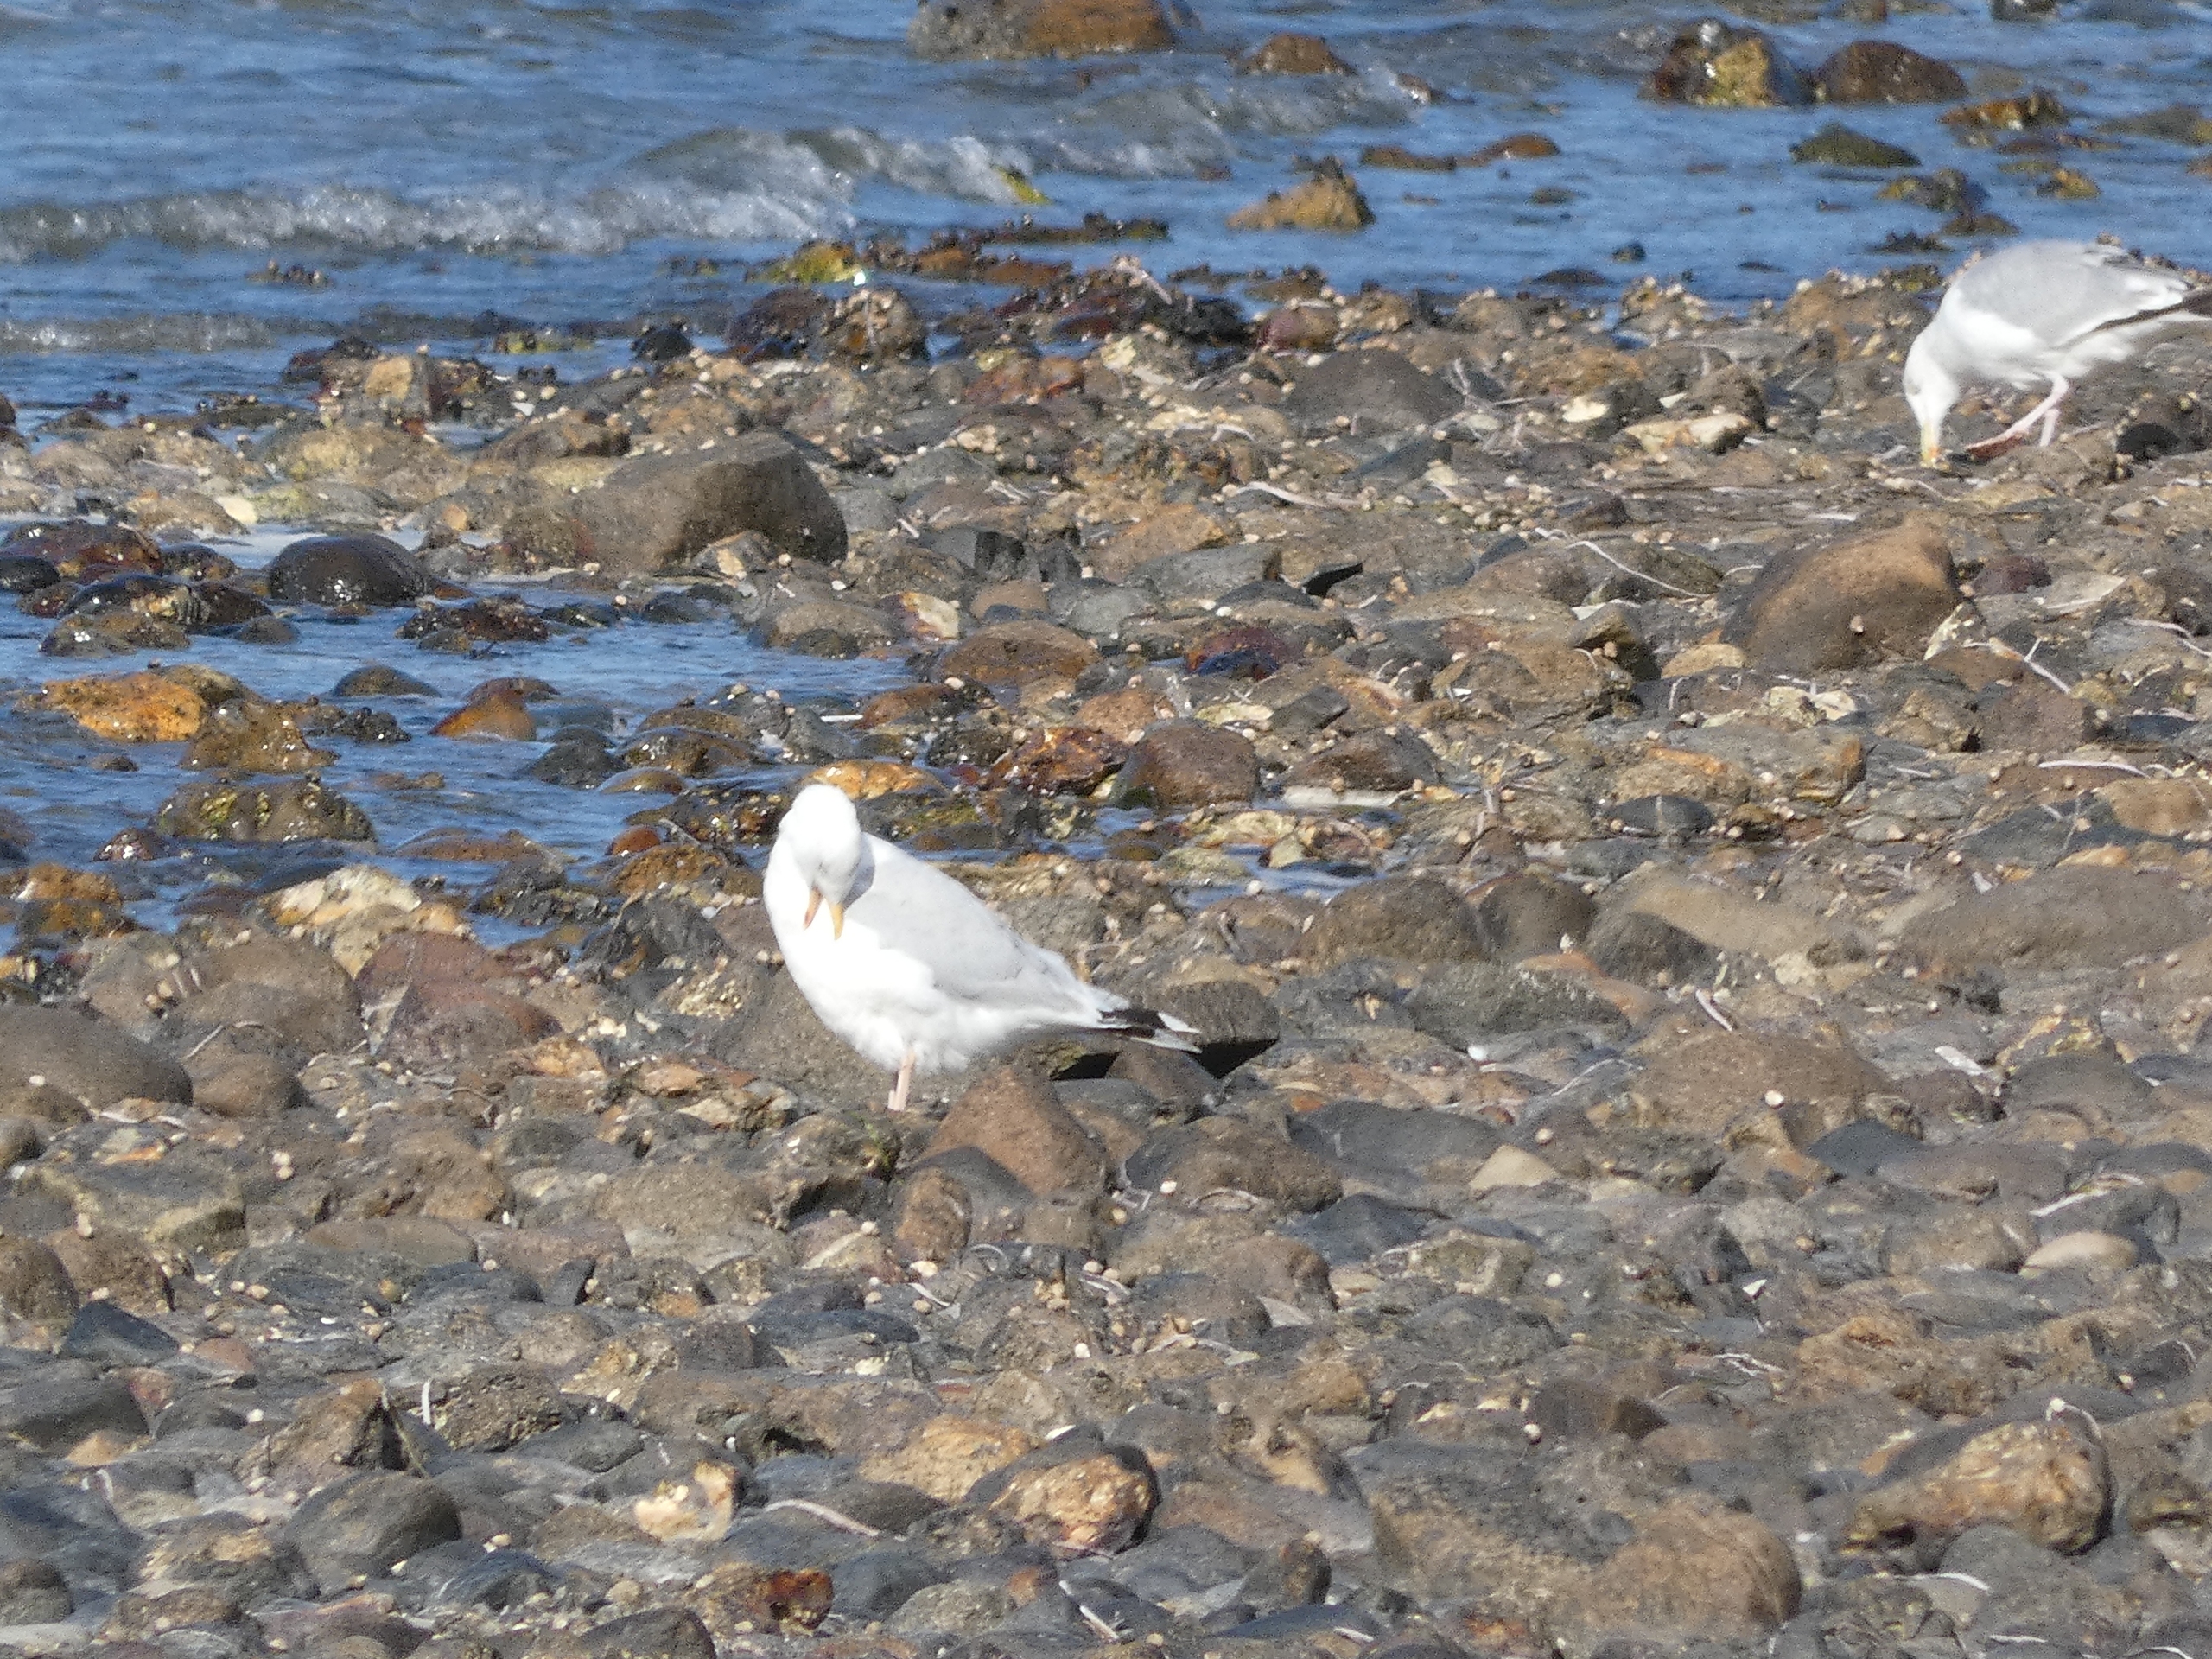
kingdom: Animalia
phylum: Chordata
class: Aves
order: Charadriiformes
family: Laridae
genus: Larus
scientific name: Larus argentatus
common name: Sølvmåge
